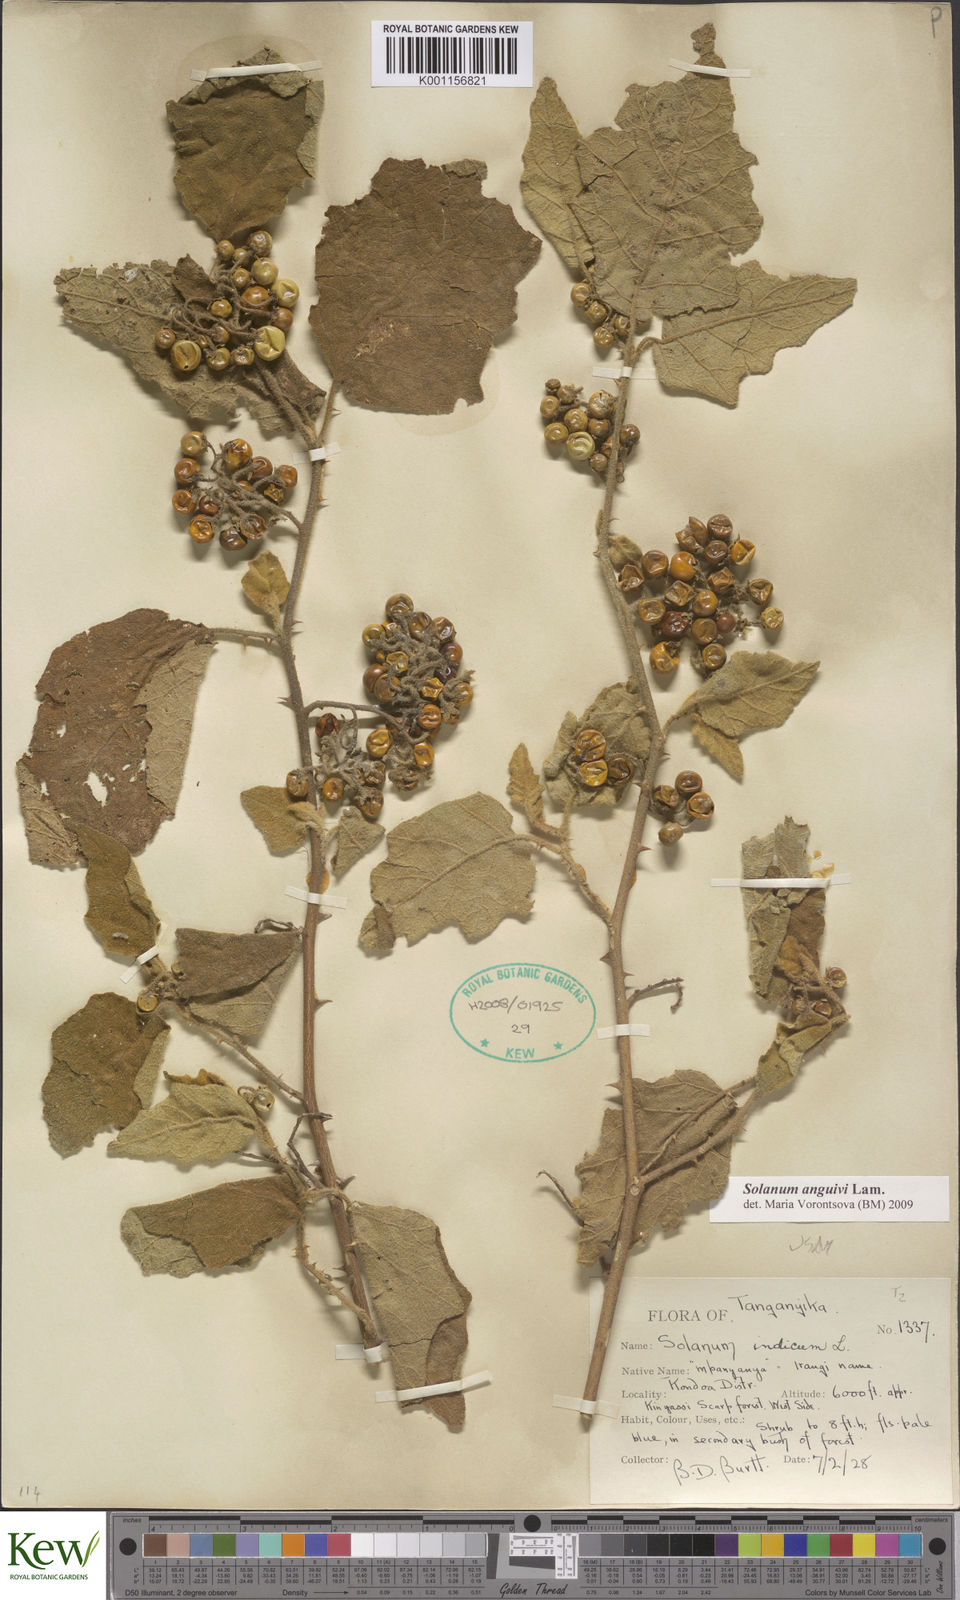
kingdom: Plantae
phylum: Tracheophyta
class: Magnoliopsida
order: Solanales
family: Solanaceae
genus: Solanum
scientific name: Solanum anguivi
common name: Forest bitterberry
